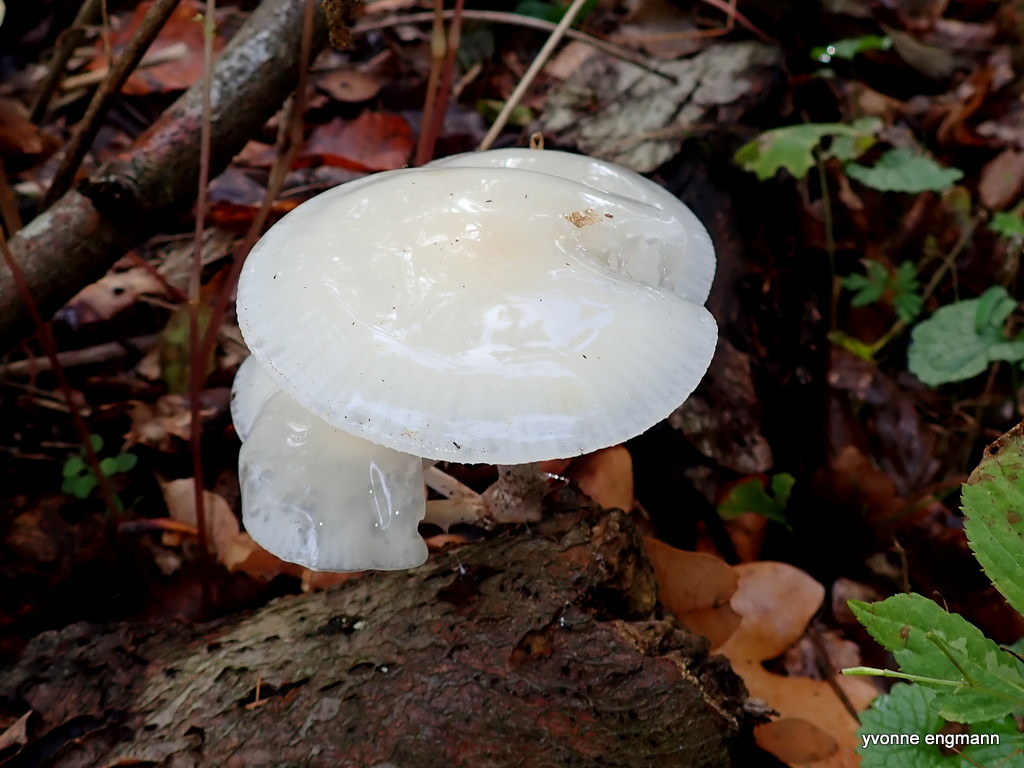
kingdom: Fungi
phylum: Basidiomycota
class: Agaricomycetes
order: Agaricales
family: Physalacriaceae
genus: Mucidula
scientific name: Mucidula mucida
